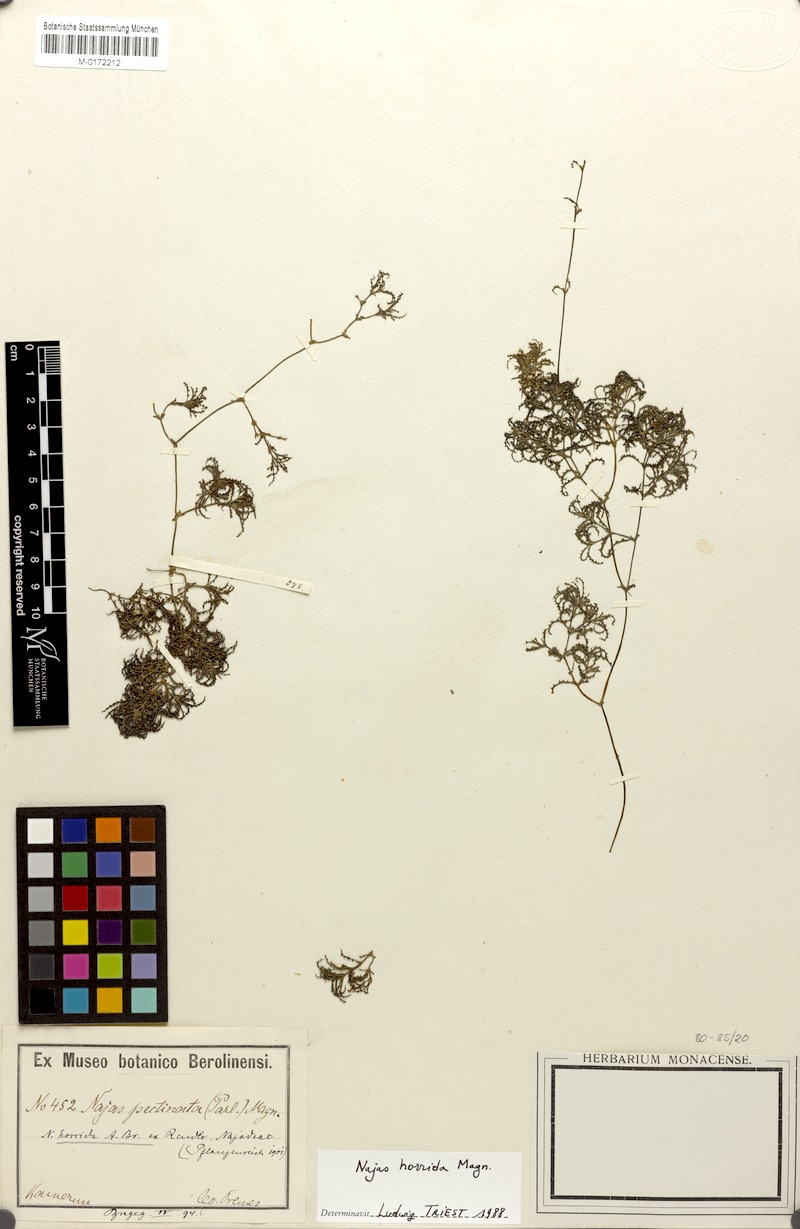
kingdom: Plantae
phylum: Tracheophyta
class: Liliopsida
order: Alismatales
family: Hydrocharitaceae
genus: Najas
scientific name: Najas horrida
